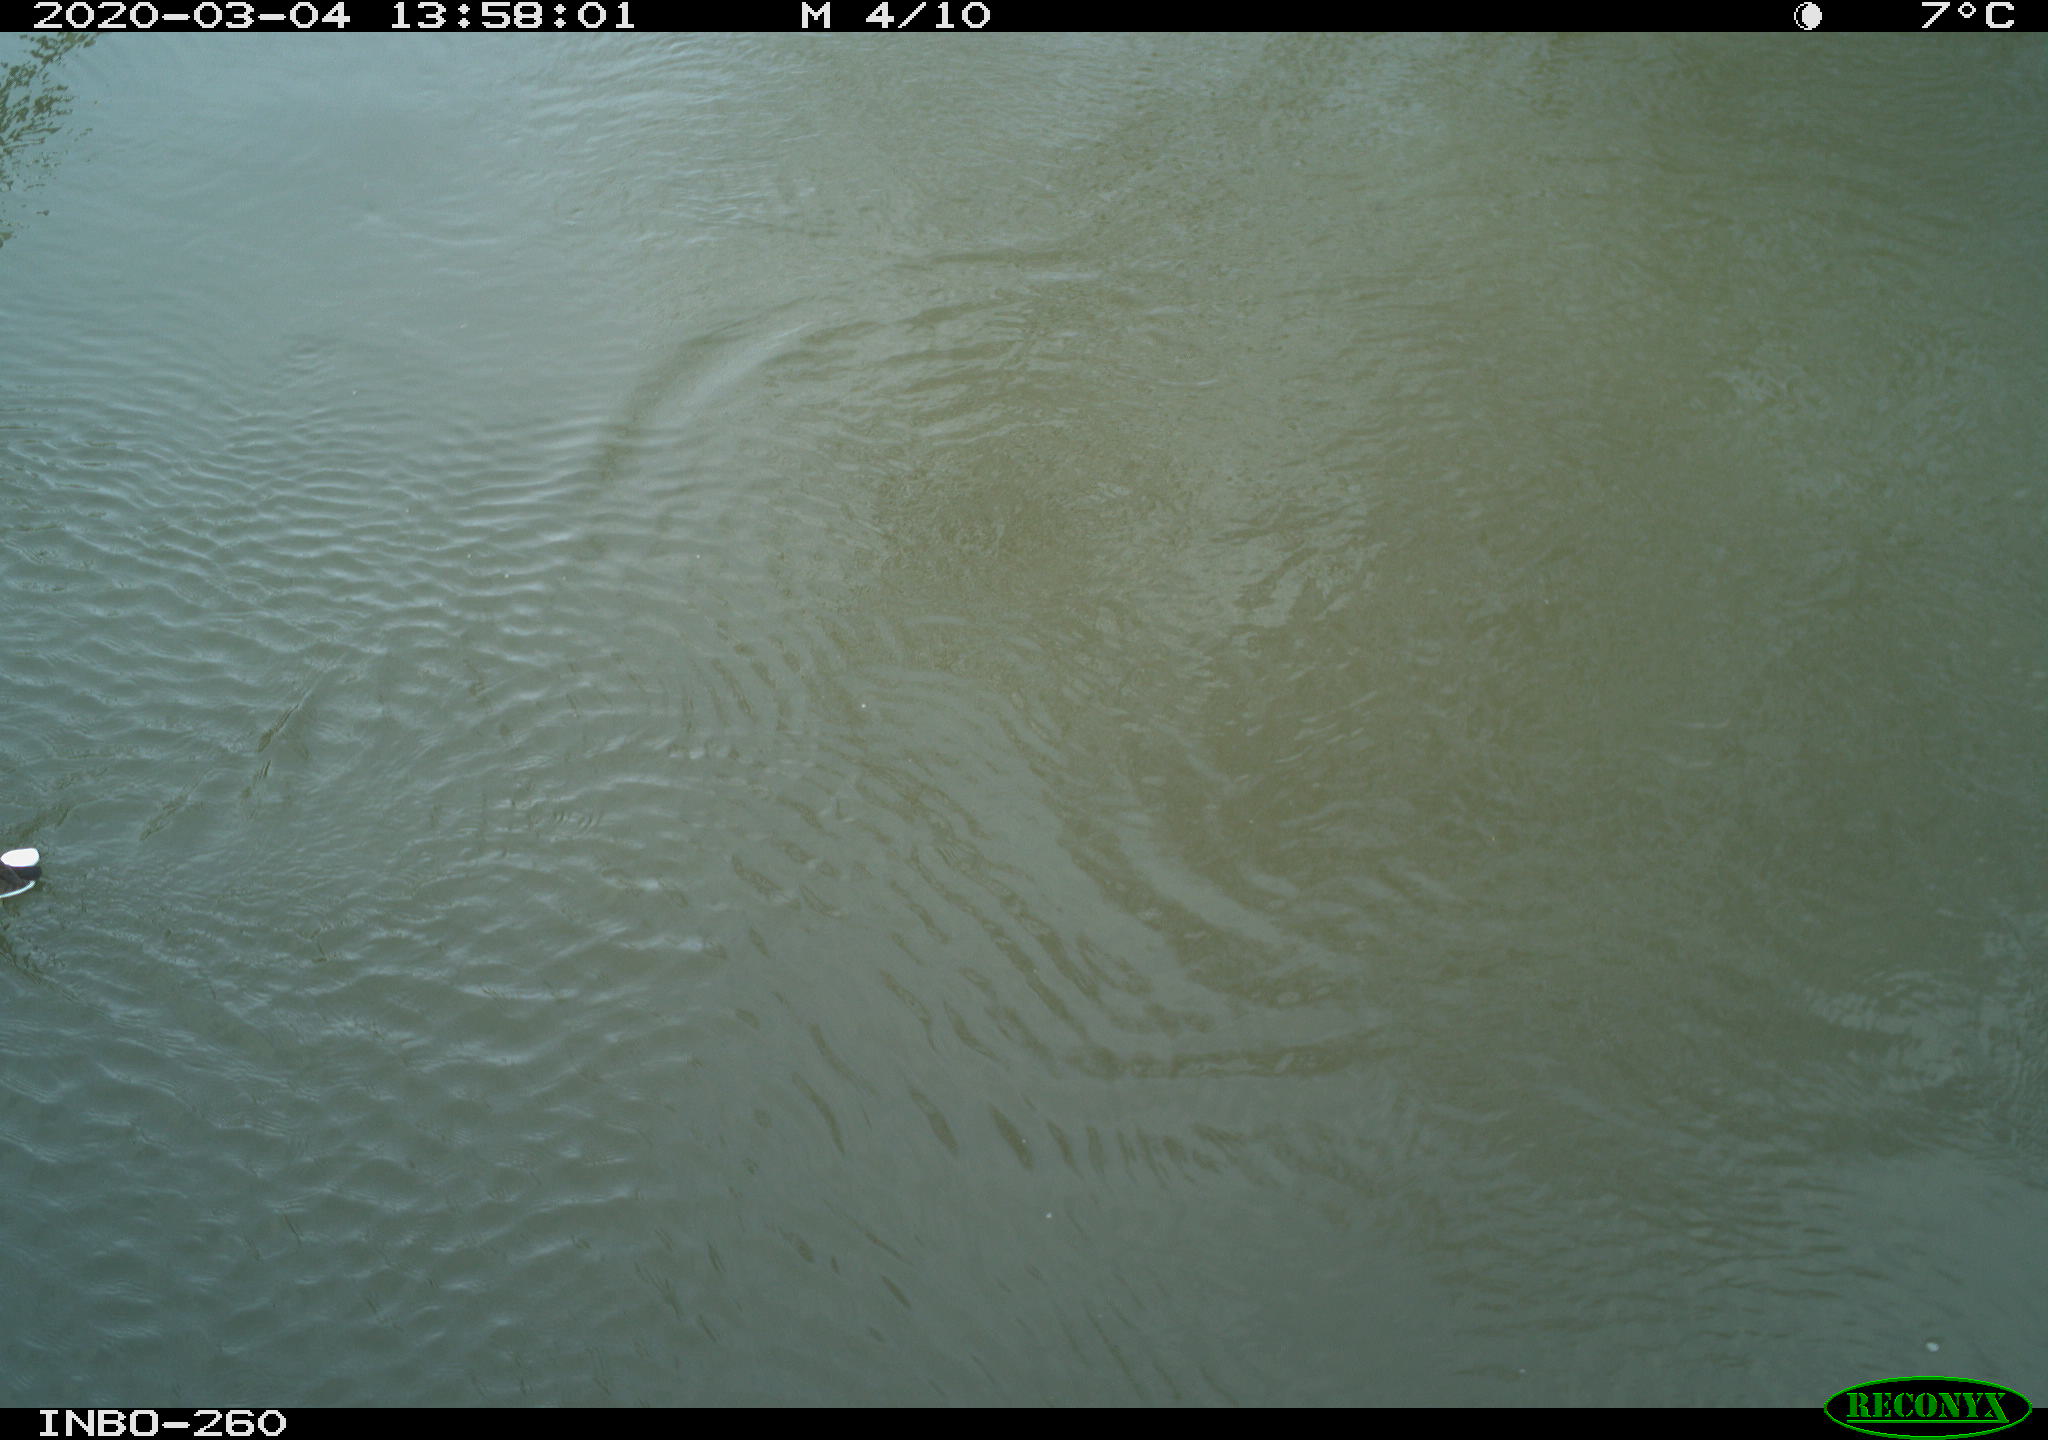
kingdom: Animalia
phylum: Chordata
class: Aves
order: Gruiformes
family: Rallidae
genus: Gallinula
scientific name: Gallinula chloropus
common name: Common moorhen
